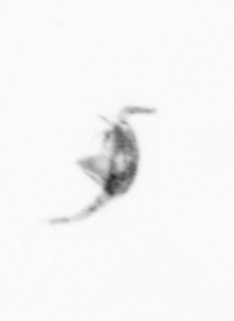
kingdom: Animalia
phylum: Arthropoda
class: Copepoda
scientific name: Copepoda
